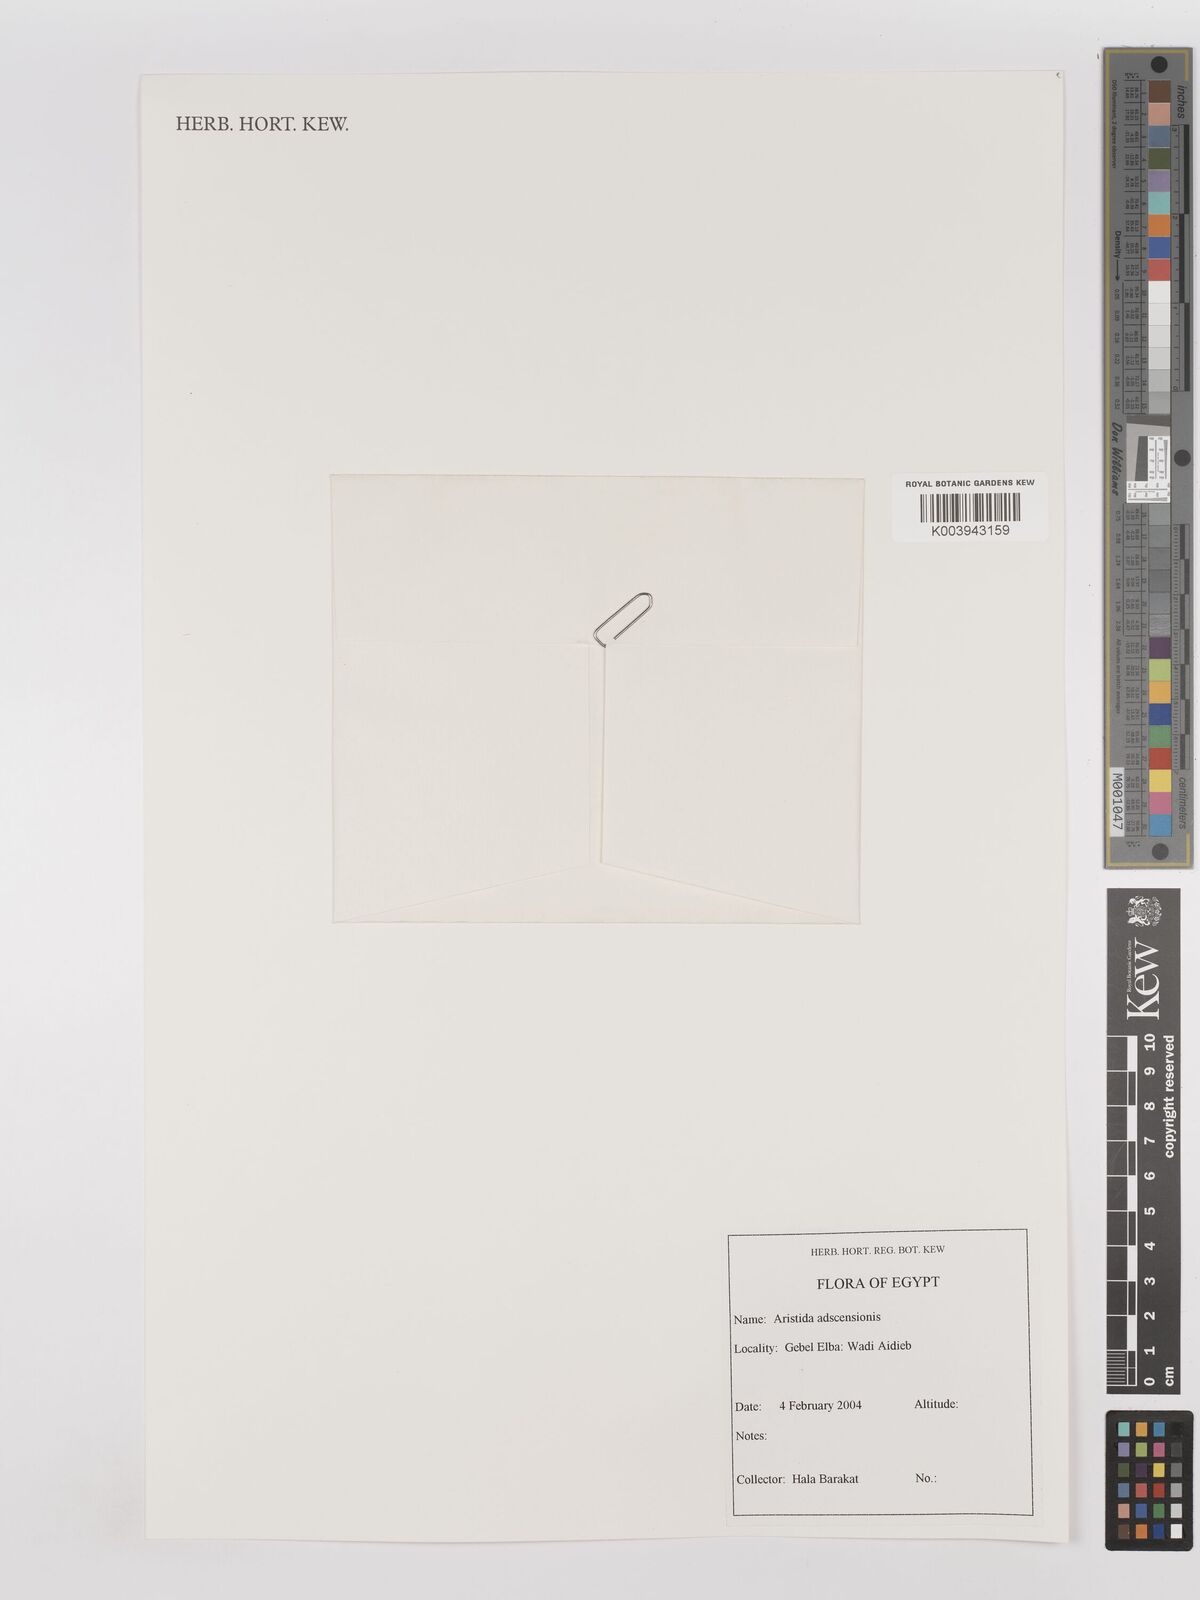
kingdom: Plantae
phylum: Tracheophyta
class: Liliopsida
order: Poales
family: Poaceae
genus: Aristida
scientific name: Aristida adscensionis
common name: Sixweeks threeawn
